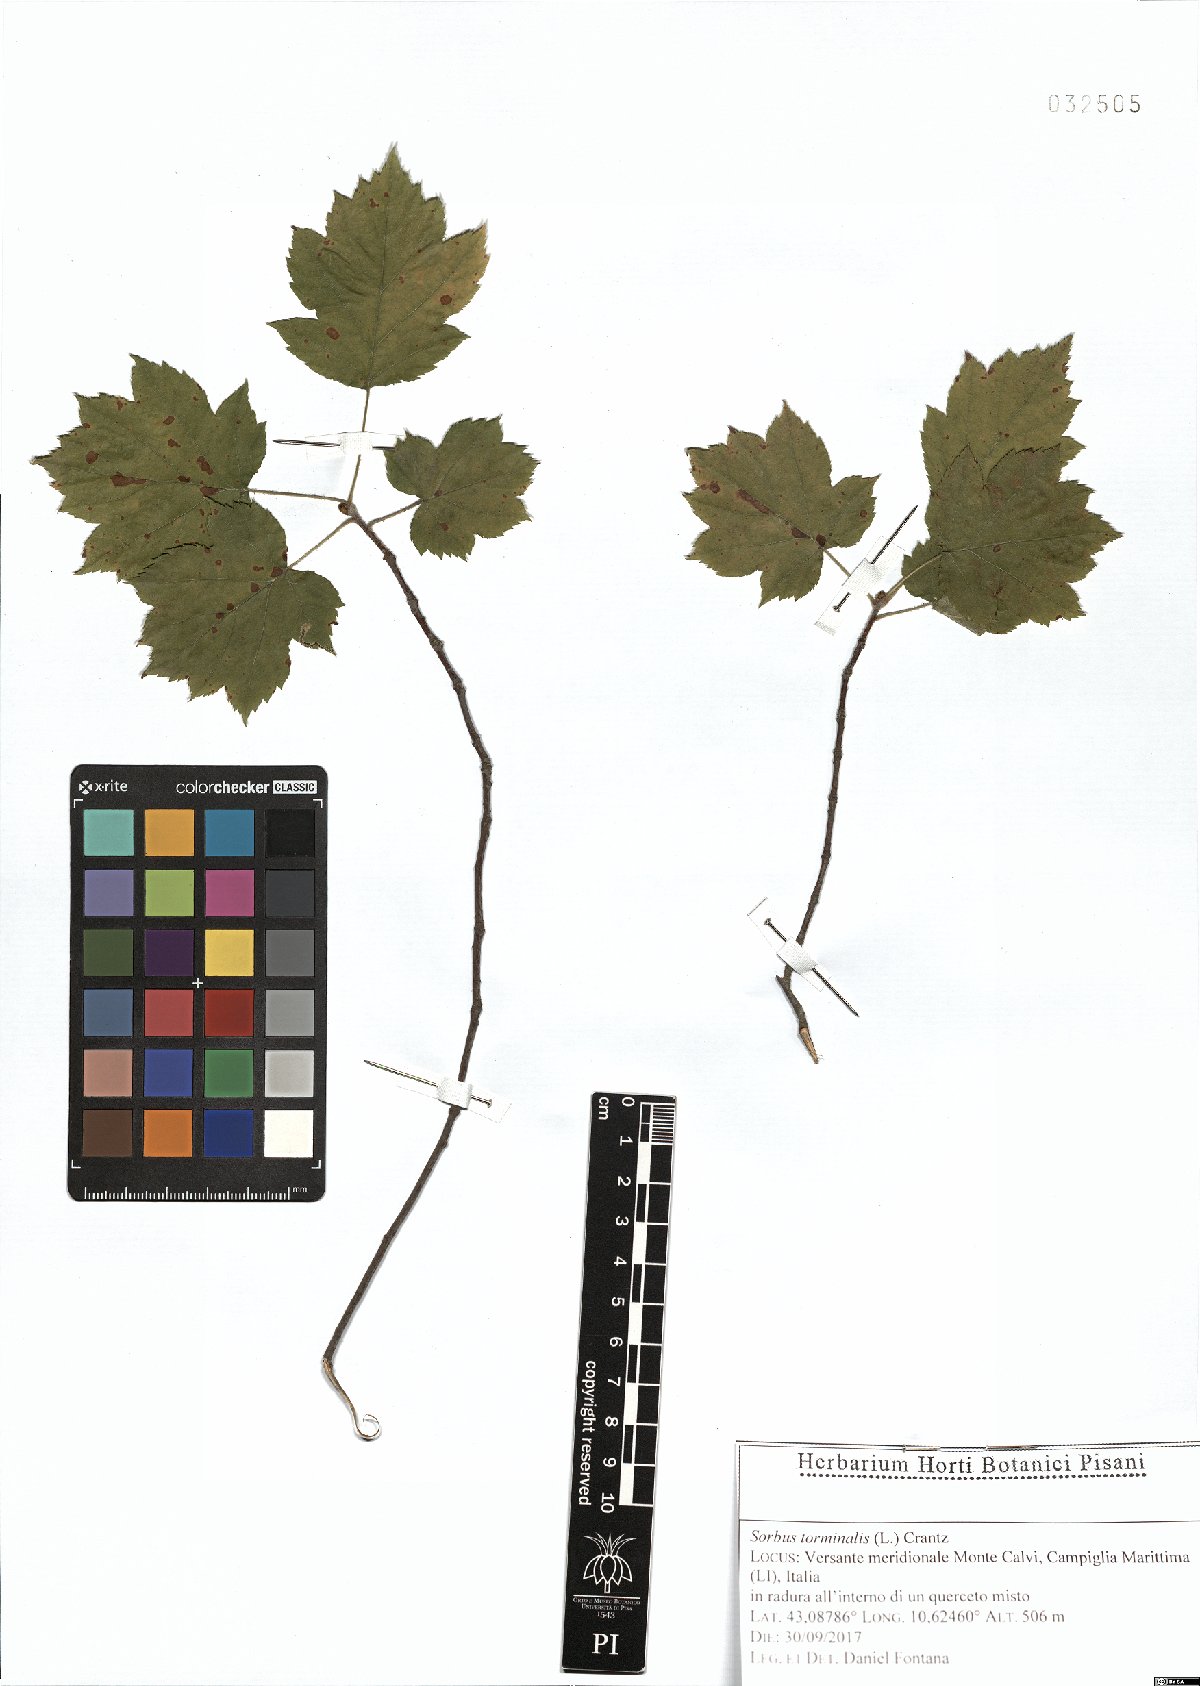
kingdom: Plantae
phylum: Tracheophyta
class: Magnoliopsida
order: Rosales
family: Rosaceae
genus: Torminalis
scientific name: Torminalis glaberrima
